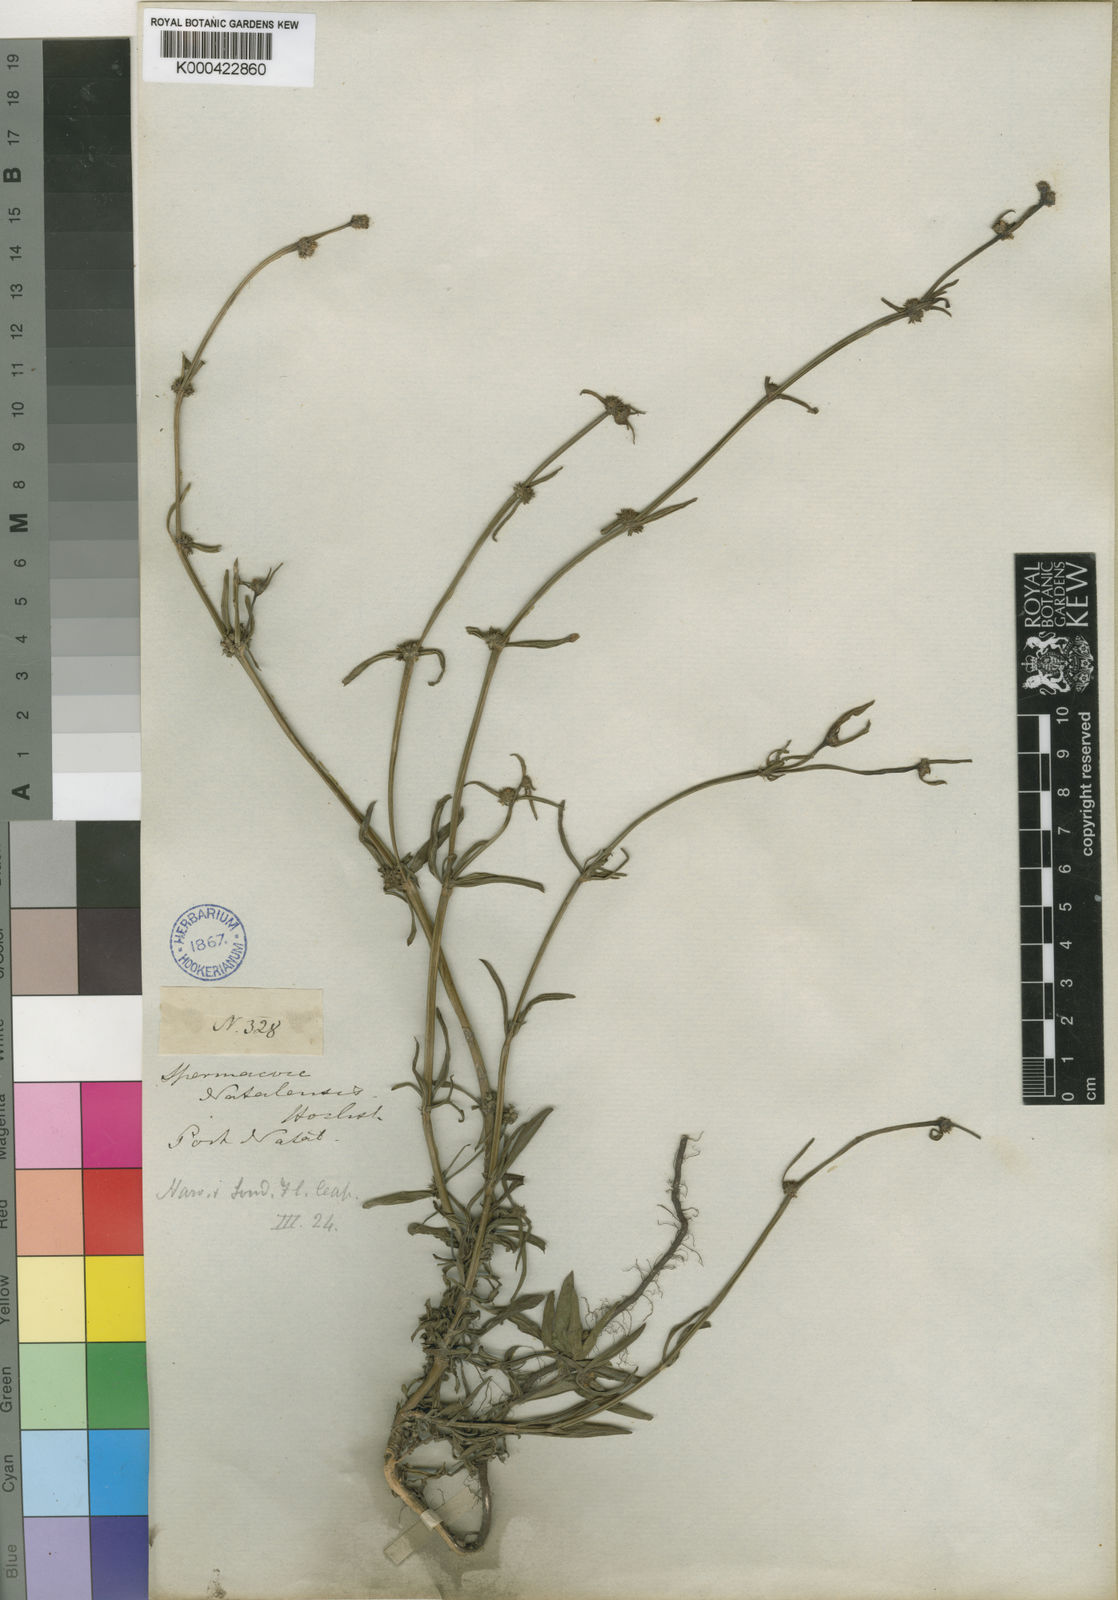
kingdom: Plantae
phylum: Tracheophyta
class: Magnoliopsida
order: Gentianales
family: Rubiaceae
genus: Spermacoce
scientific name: Spermacoce natalensis
